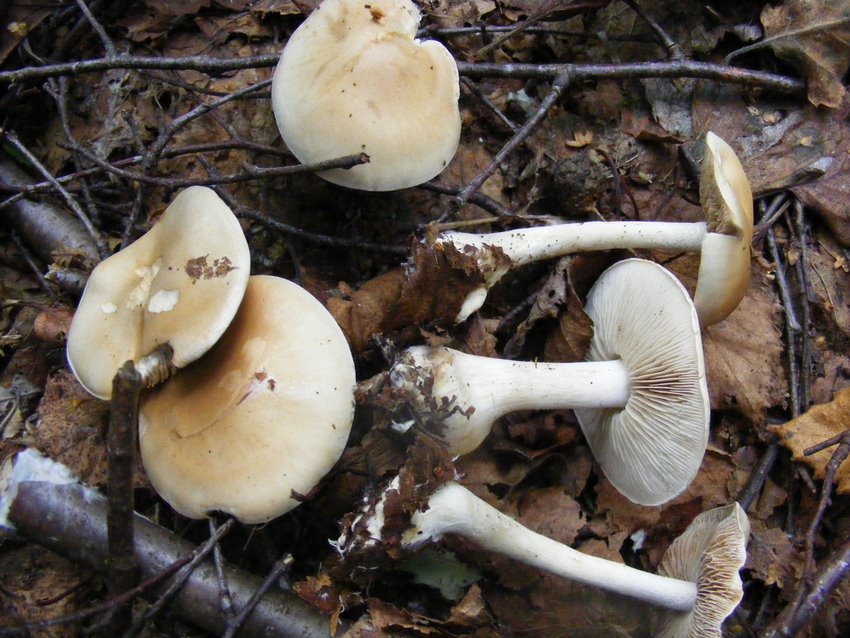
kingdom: Fungi
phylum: Basidiomycota
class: Agaricomycetes
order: Agaricales
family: Hymenogastraceae
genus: Hebeloma
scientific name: Hebeloma leucosarx
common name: højstokket tåreblad
